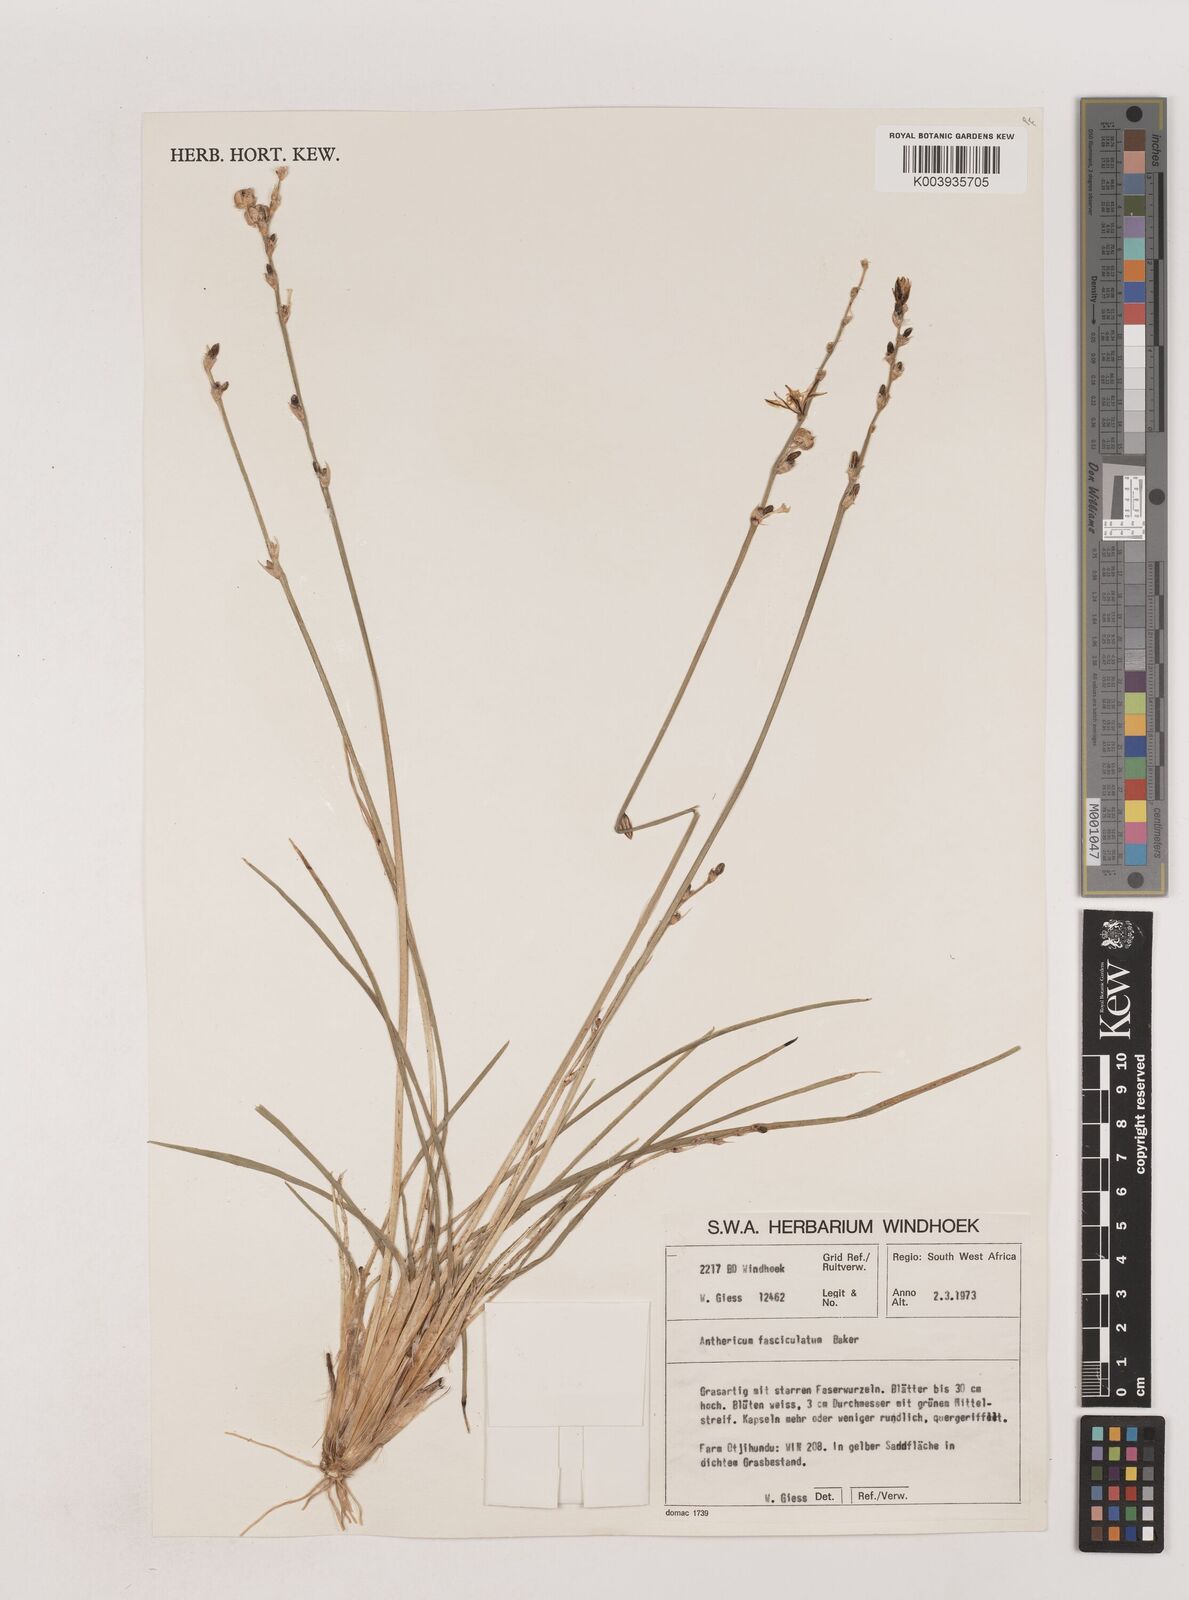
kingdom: Plantae
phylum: Tracheophyta
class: Liliopsida
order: Asparagales
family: Asparagaceae
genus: Chlorophytum
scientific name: Chlorophytum fasciculatum
